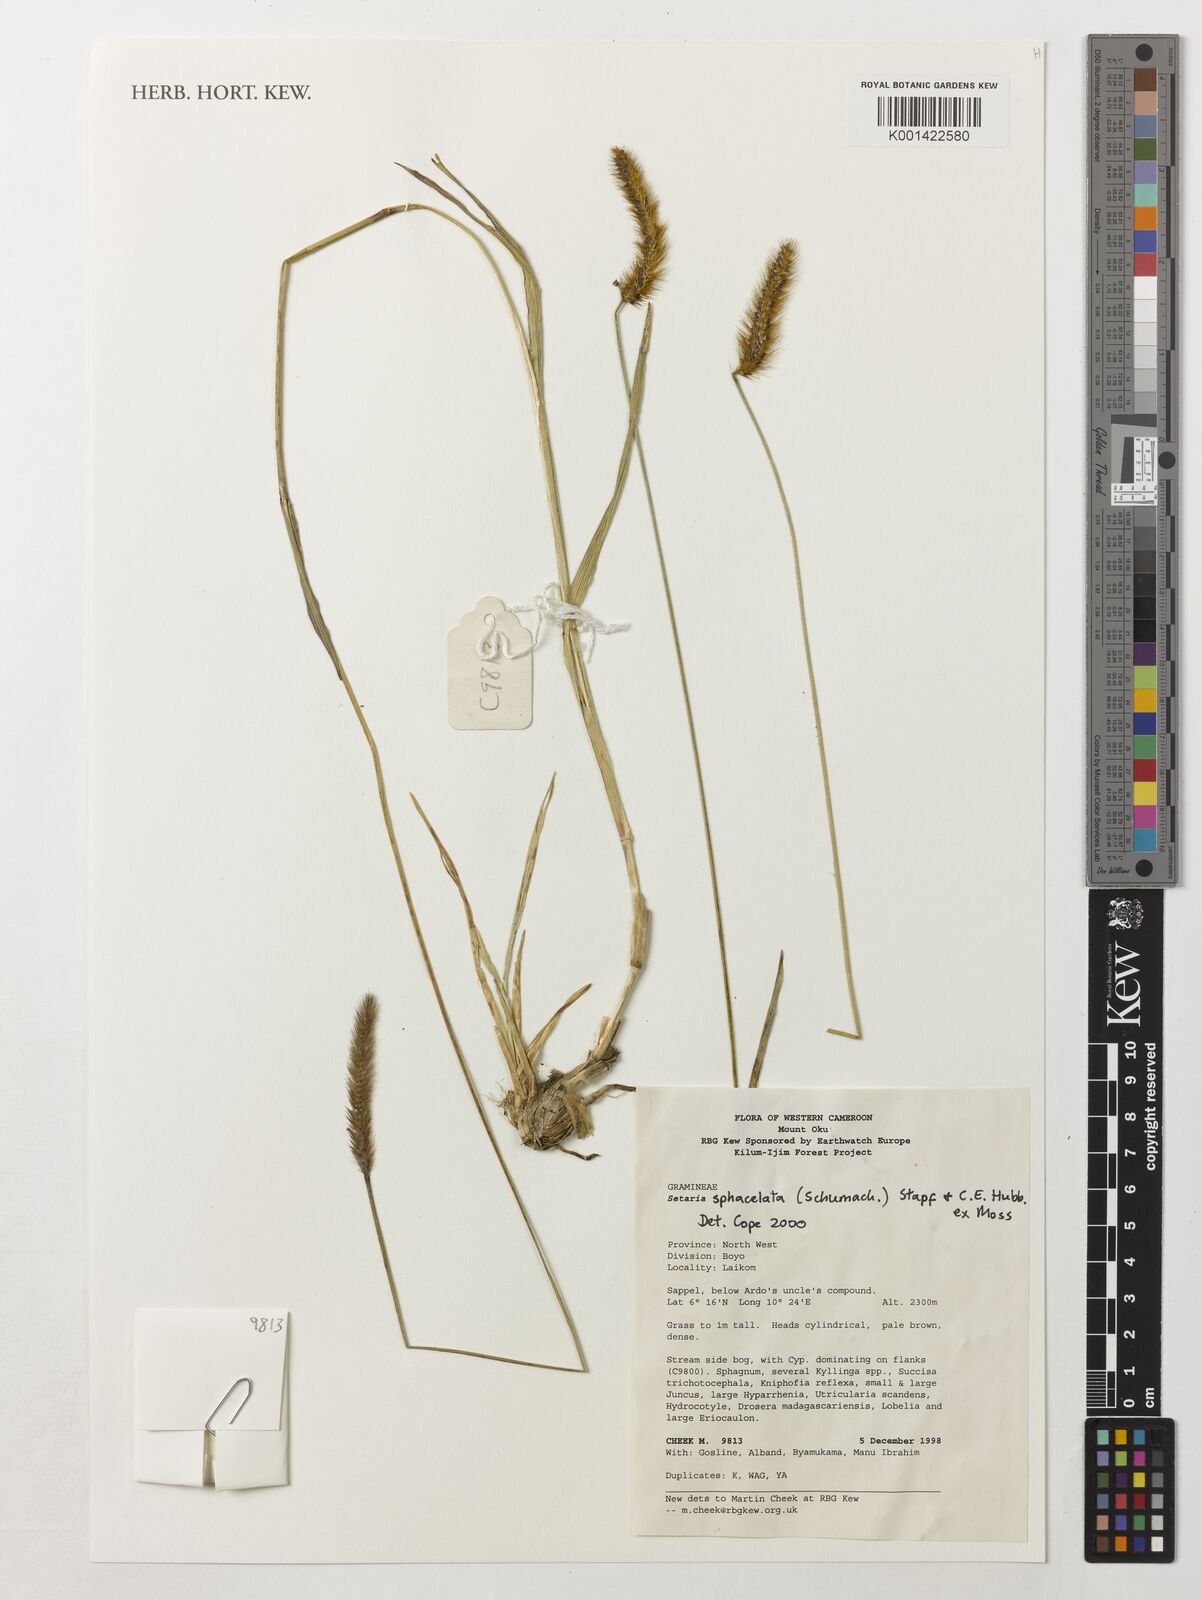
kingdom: Plantae
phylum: Tracheophyta
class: Liliopsida
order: Poales
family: Poaceae
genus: Setaria
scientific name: Setaria sphacelata
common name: African bristlegrass
